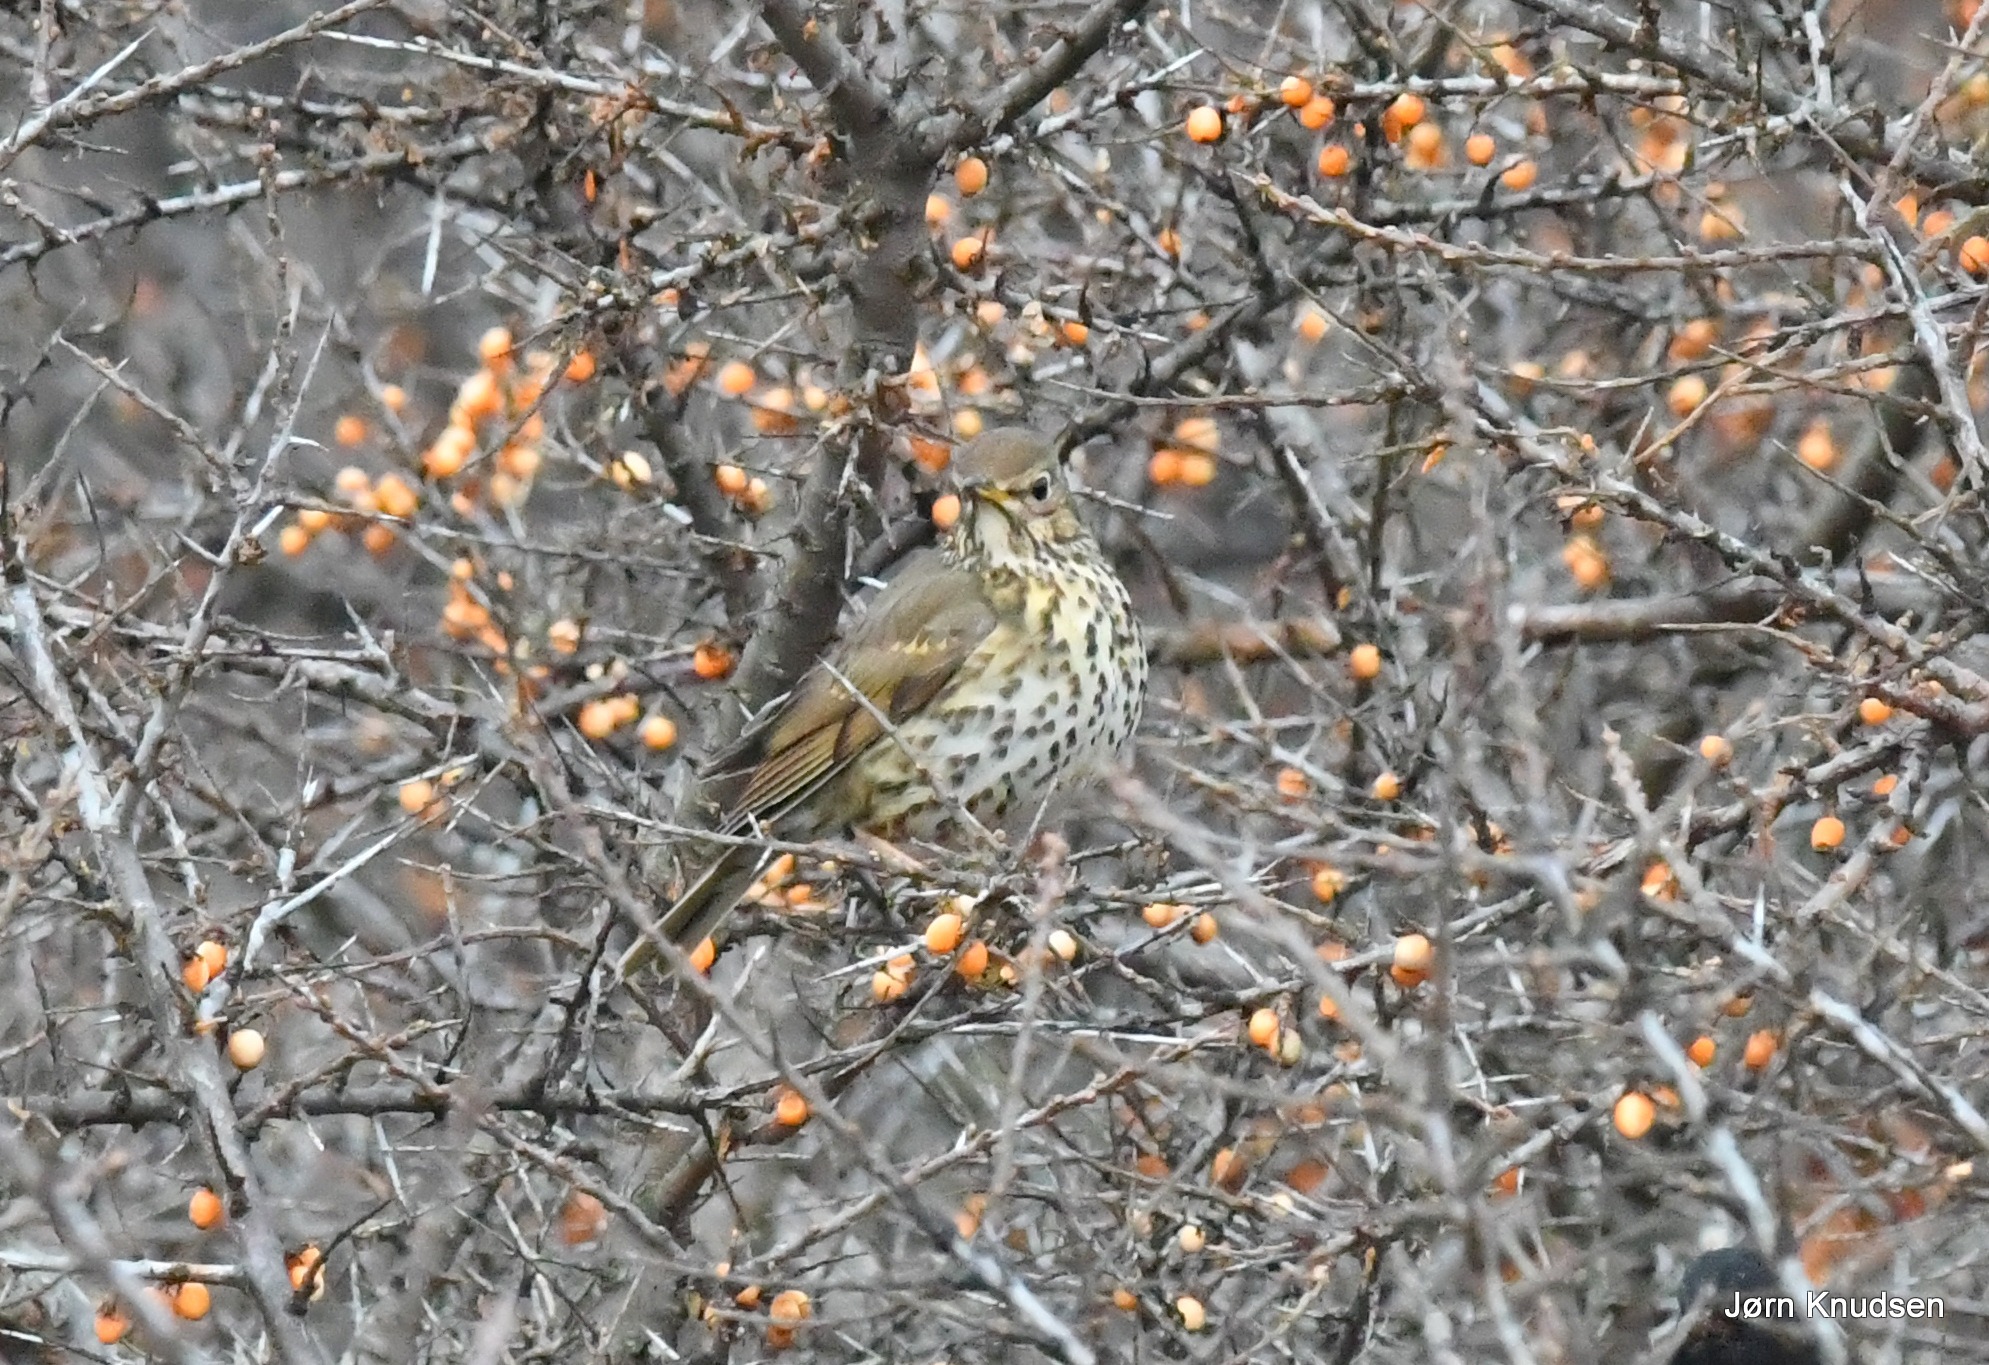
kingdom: Animalia
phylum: Chordata
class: Aves
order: Passeriformes
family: Turdidae
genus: Turdus
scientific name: Turdus philomelos
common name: Sangdrossel
